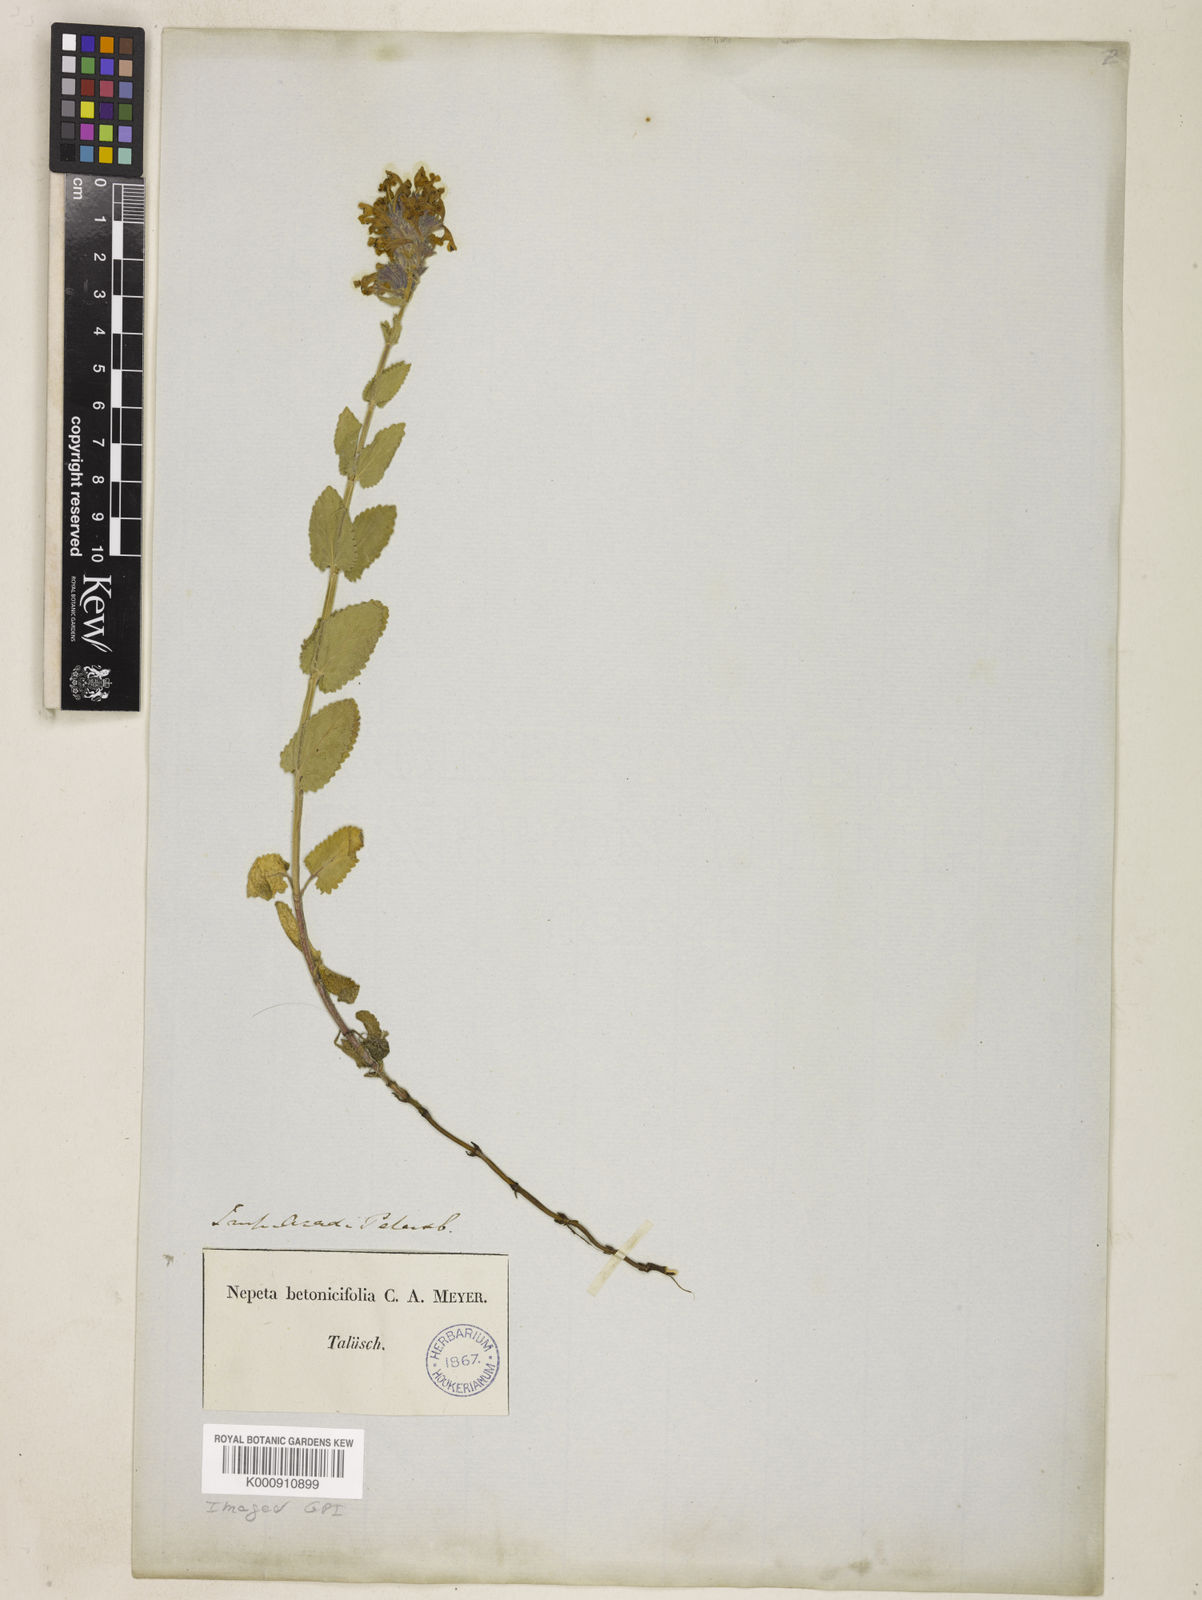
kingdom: Plantae
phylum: Tracheophyta
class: Magnoliopsida
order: Lamiales
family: Lamiaceae
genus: Nepeta
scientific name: Nepeta betonicifolia
